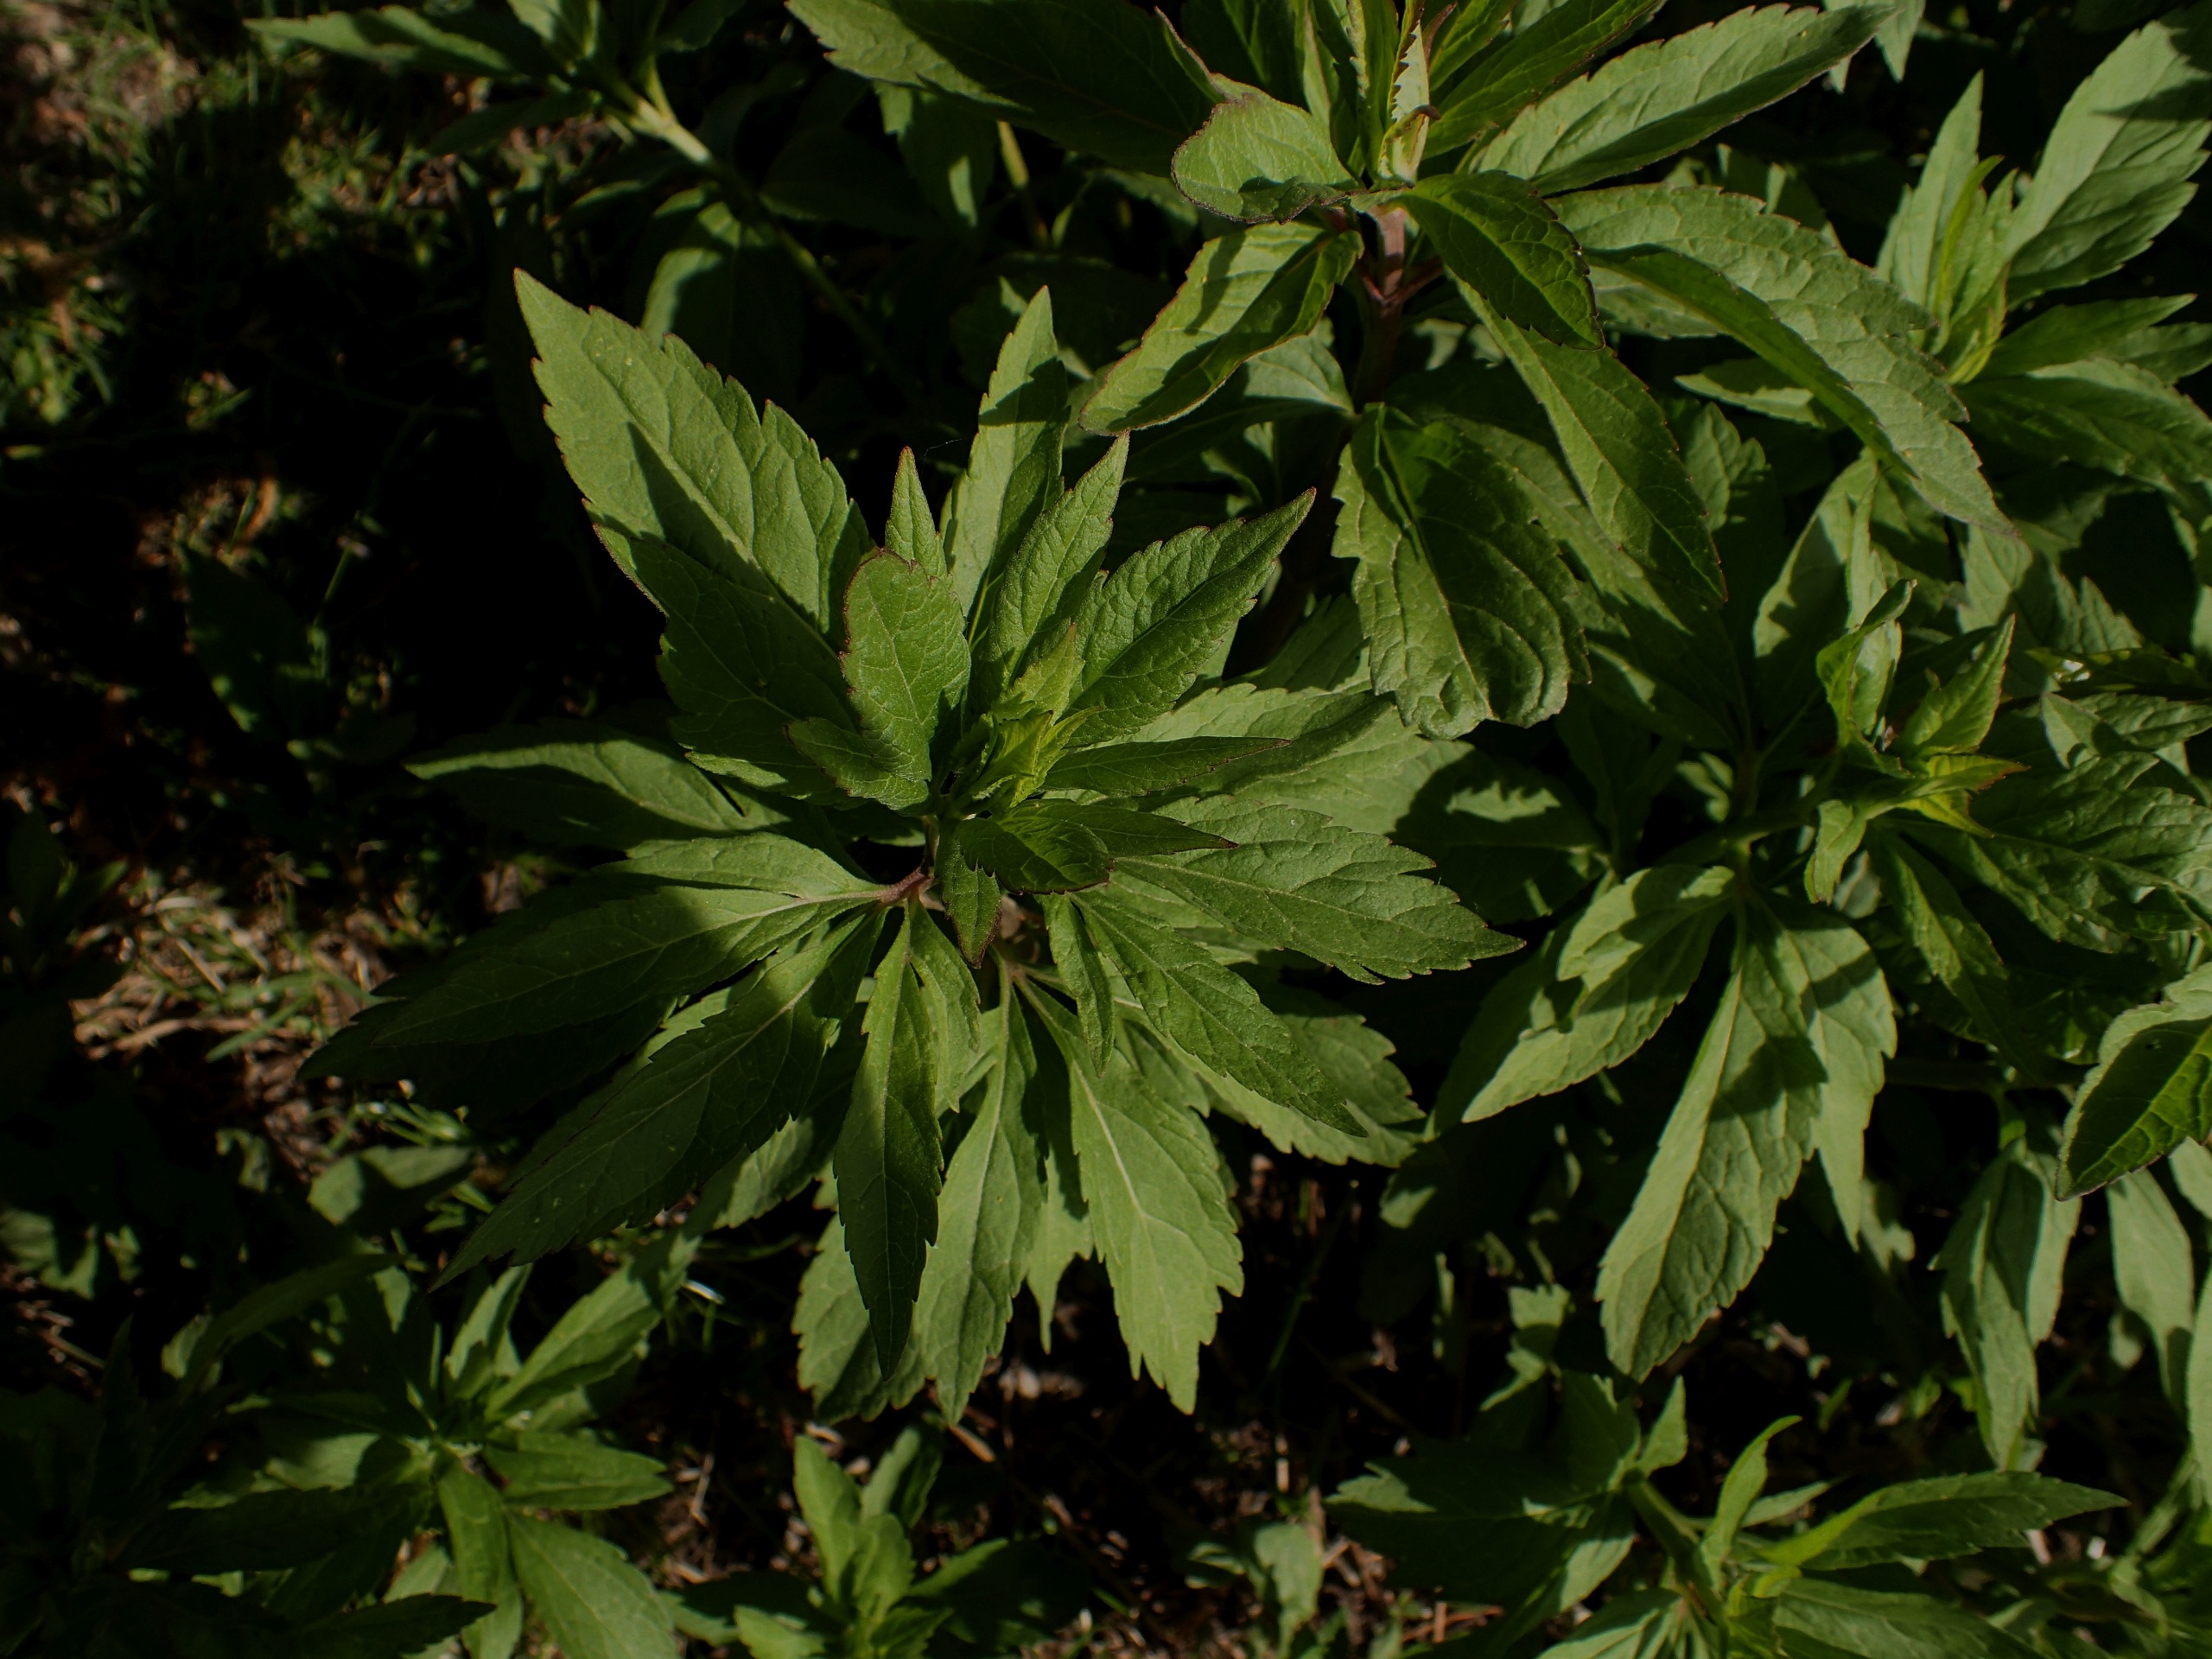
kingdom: Plantae
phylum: Tracheophyta
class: Magnoliopsida
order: Asterales
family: Asteraceae
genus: Eupatorium
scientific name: Eupatorium cannabinum
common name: Hjortetrøst
